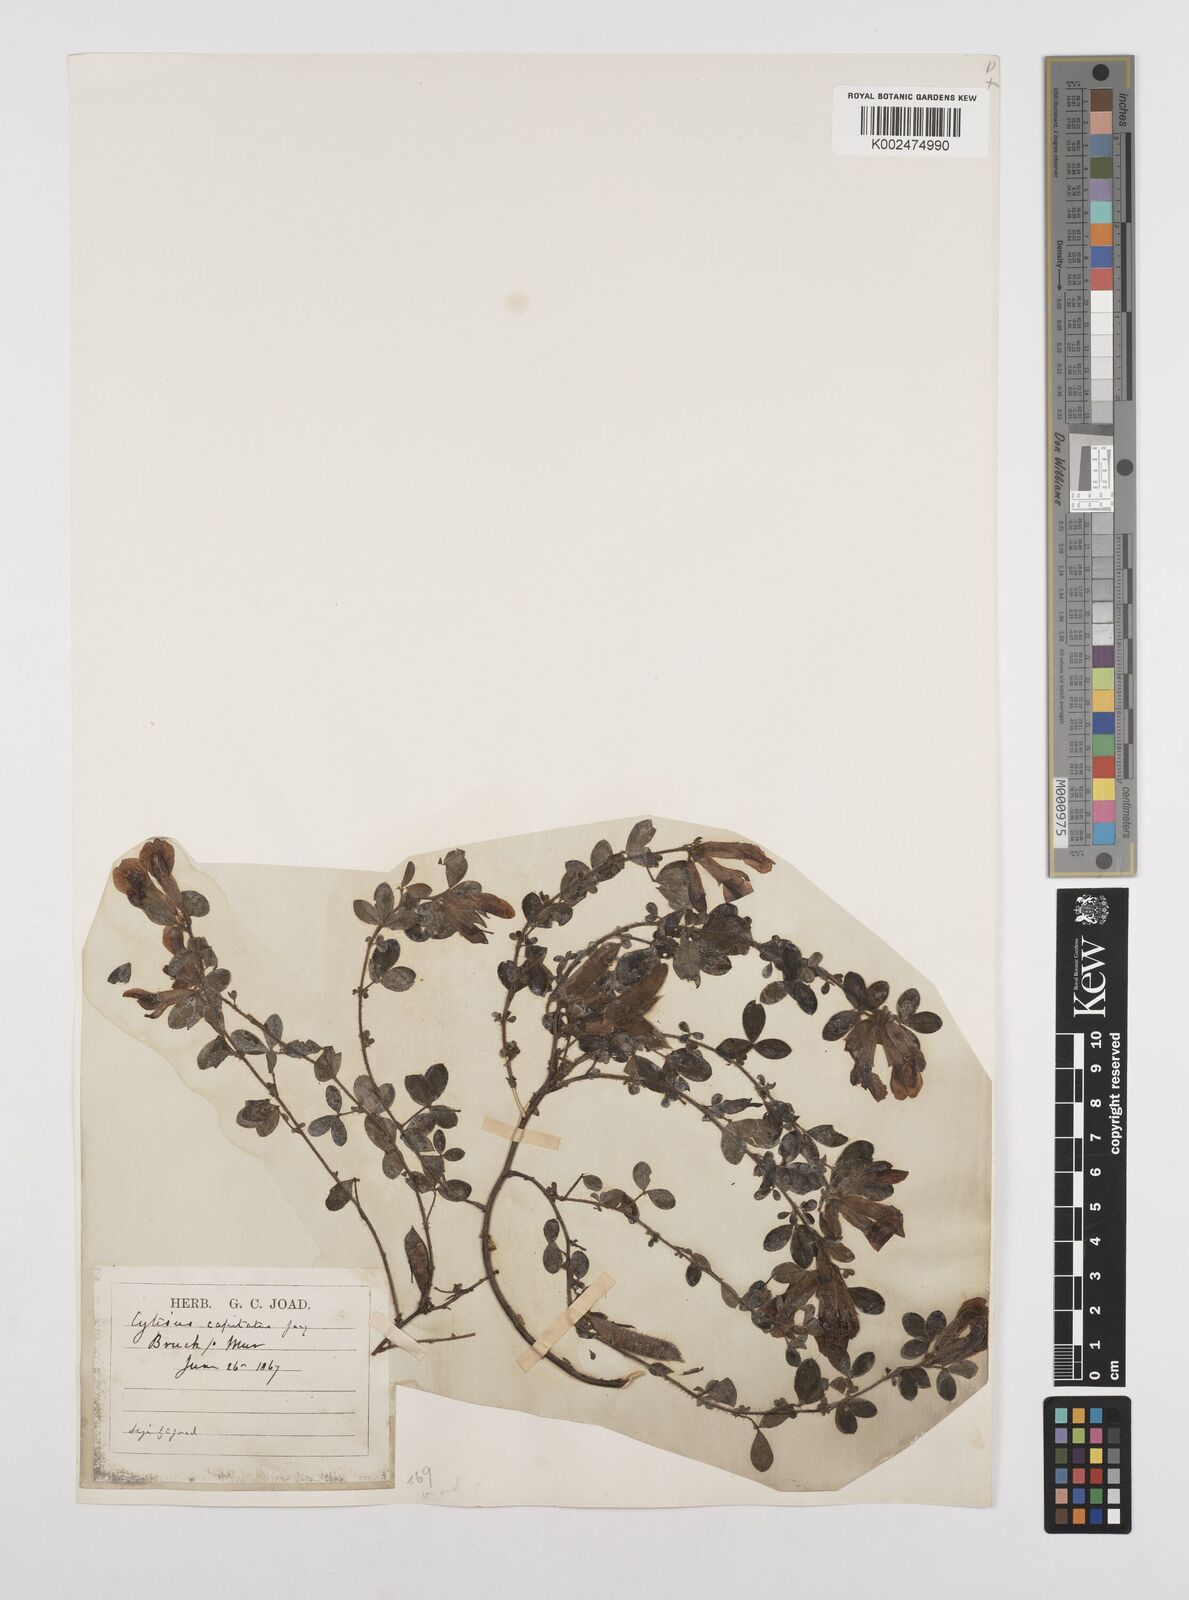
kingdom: Plantae
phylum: Tracheophyta
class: Magnoliopsida
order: Fabales
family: Fabaceae
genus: Chamaecytisus
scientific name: Chamaecytisus hirsutus
